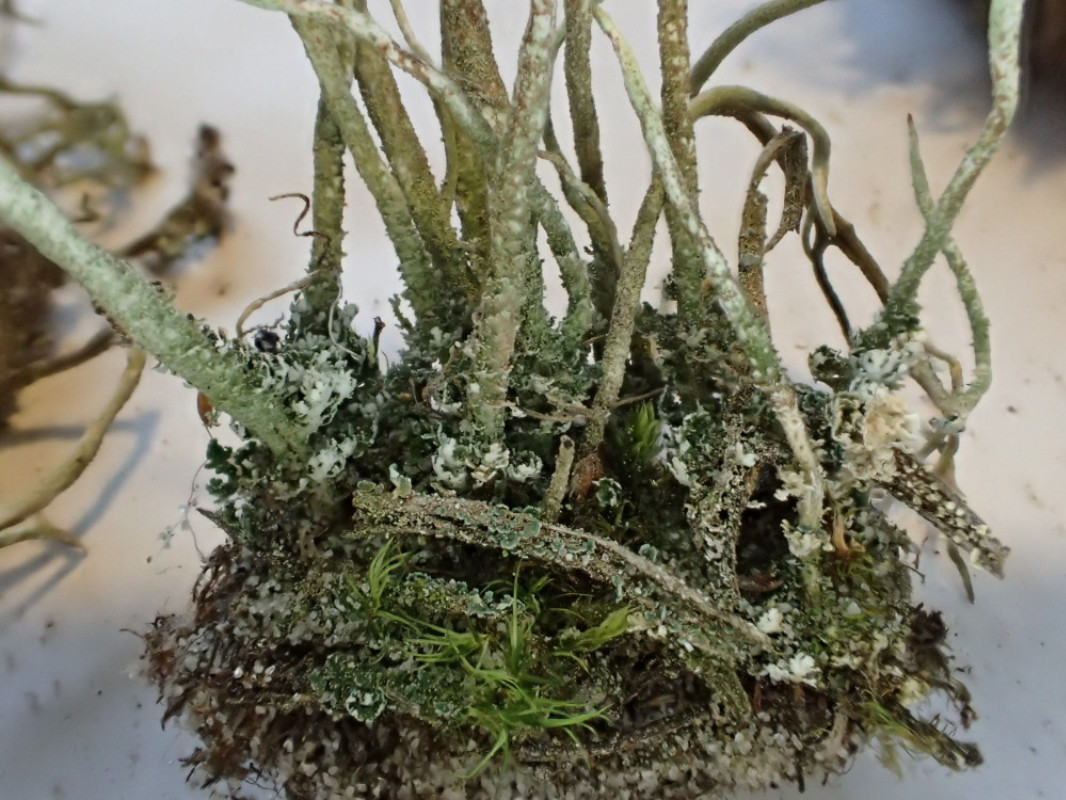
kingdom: Fungi
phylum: Ascomycota
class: Lecanoromycetes
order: Lecanorales
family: Cladoniaceae
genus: Cladonia
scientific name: Cladonia glauca
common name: grågrøn bægerlav
